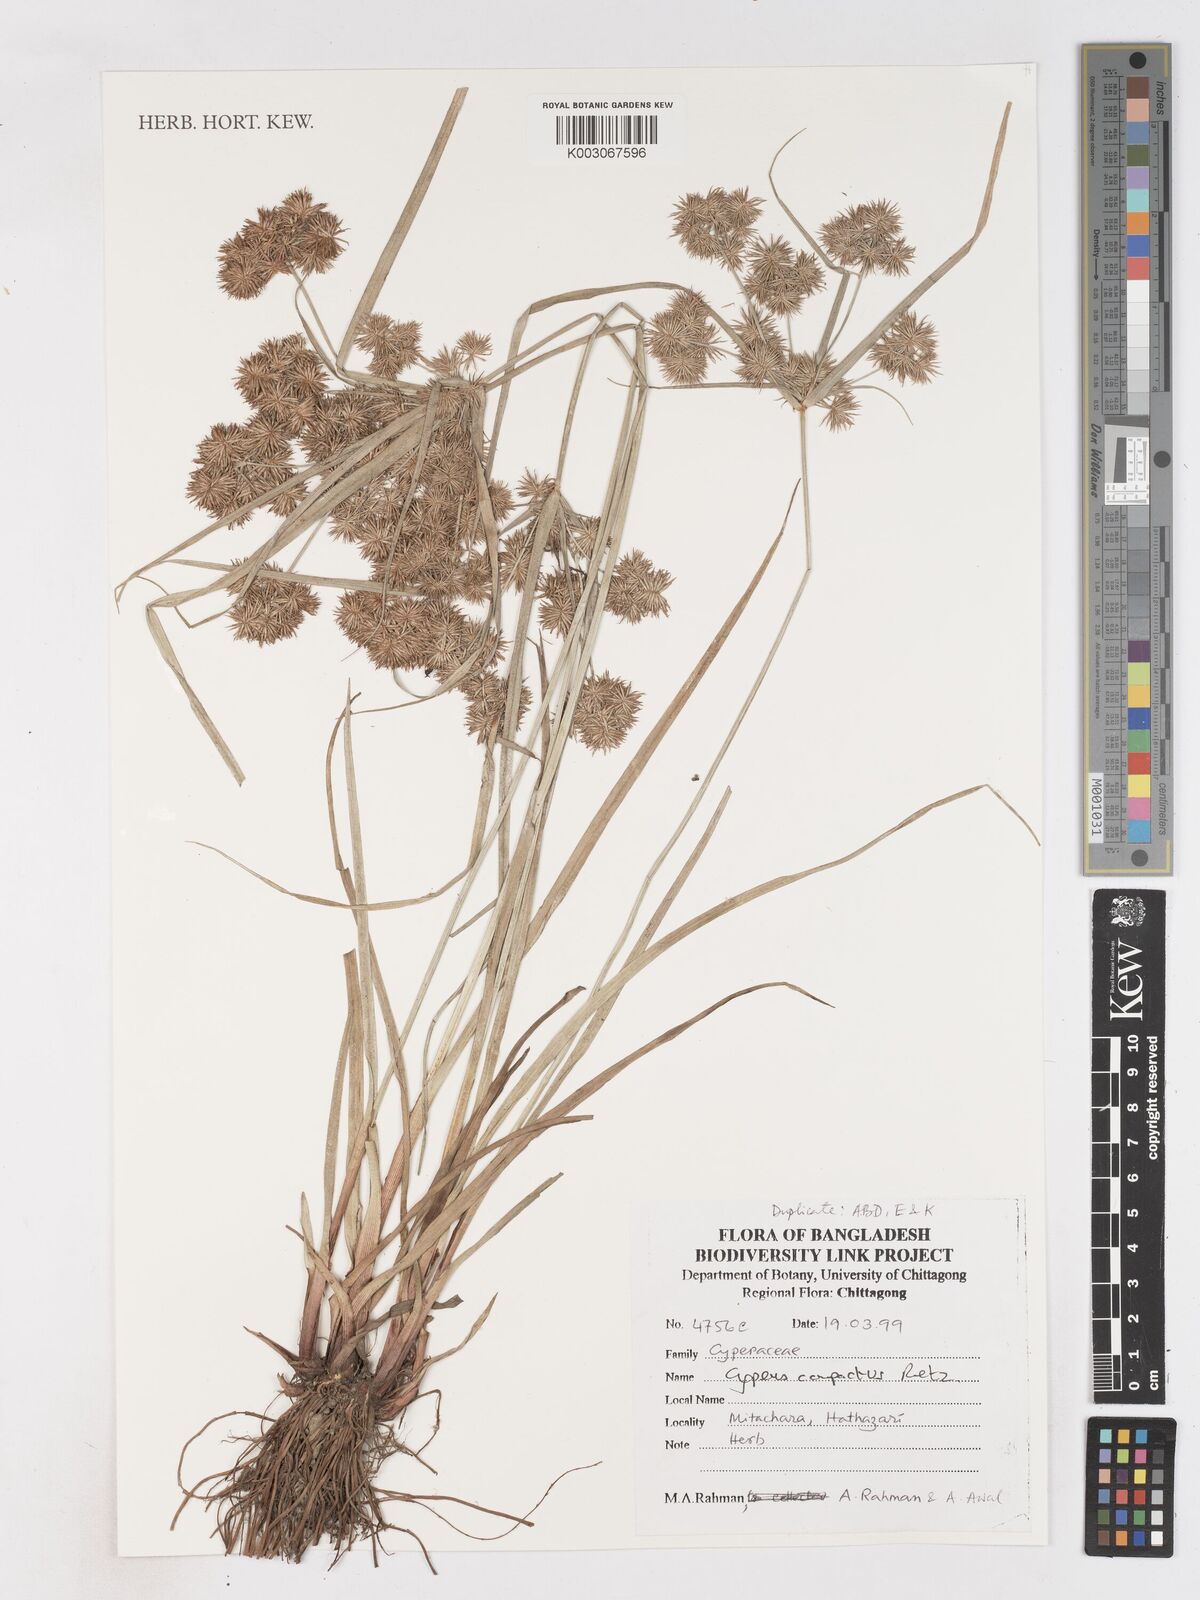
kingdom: Plantae
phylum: Tracheophyta
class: Liliopsida
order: Poales
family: Cyperaceae
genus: Cyperus
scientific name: Cyperus compactus
